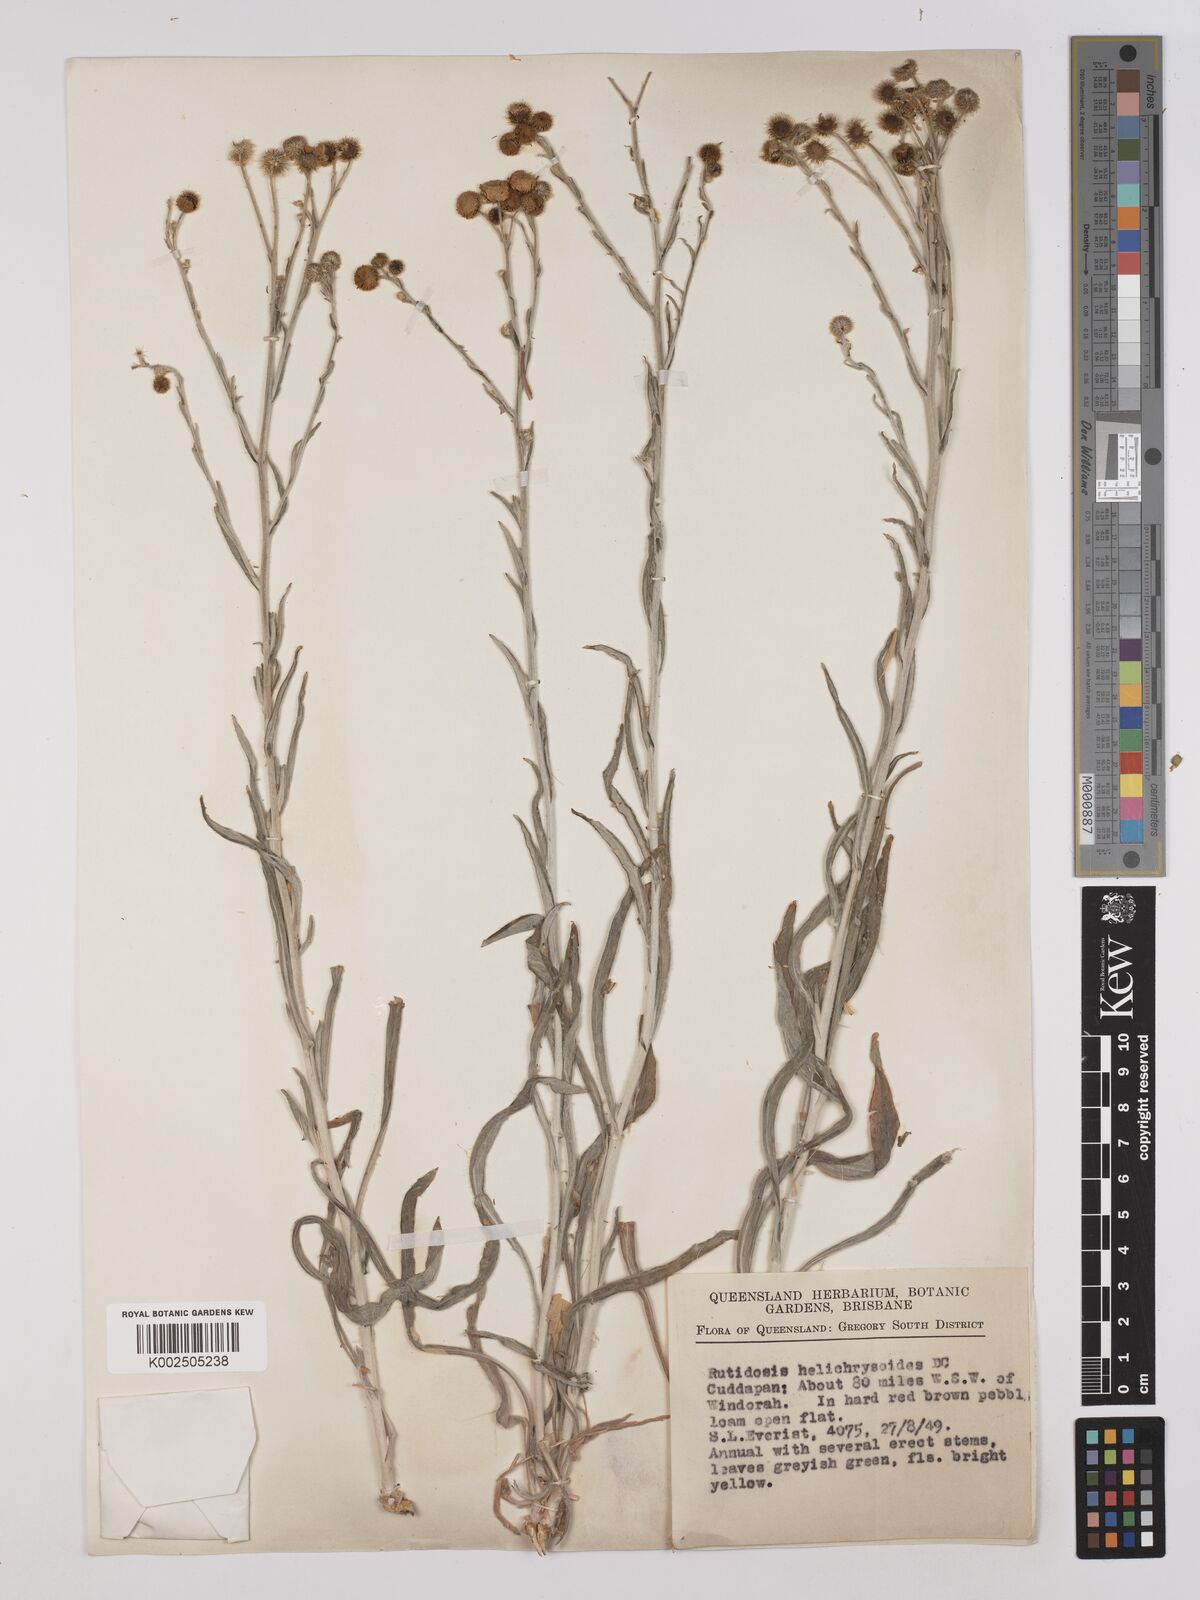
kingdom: Plantae
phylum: Tracheophyta
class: Magnoliopsida
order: Asterales
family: Asteraceae
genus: Rutidosis
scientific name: Rutidosis helichrysoides
